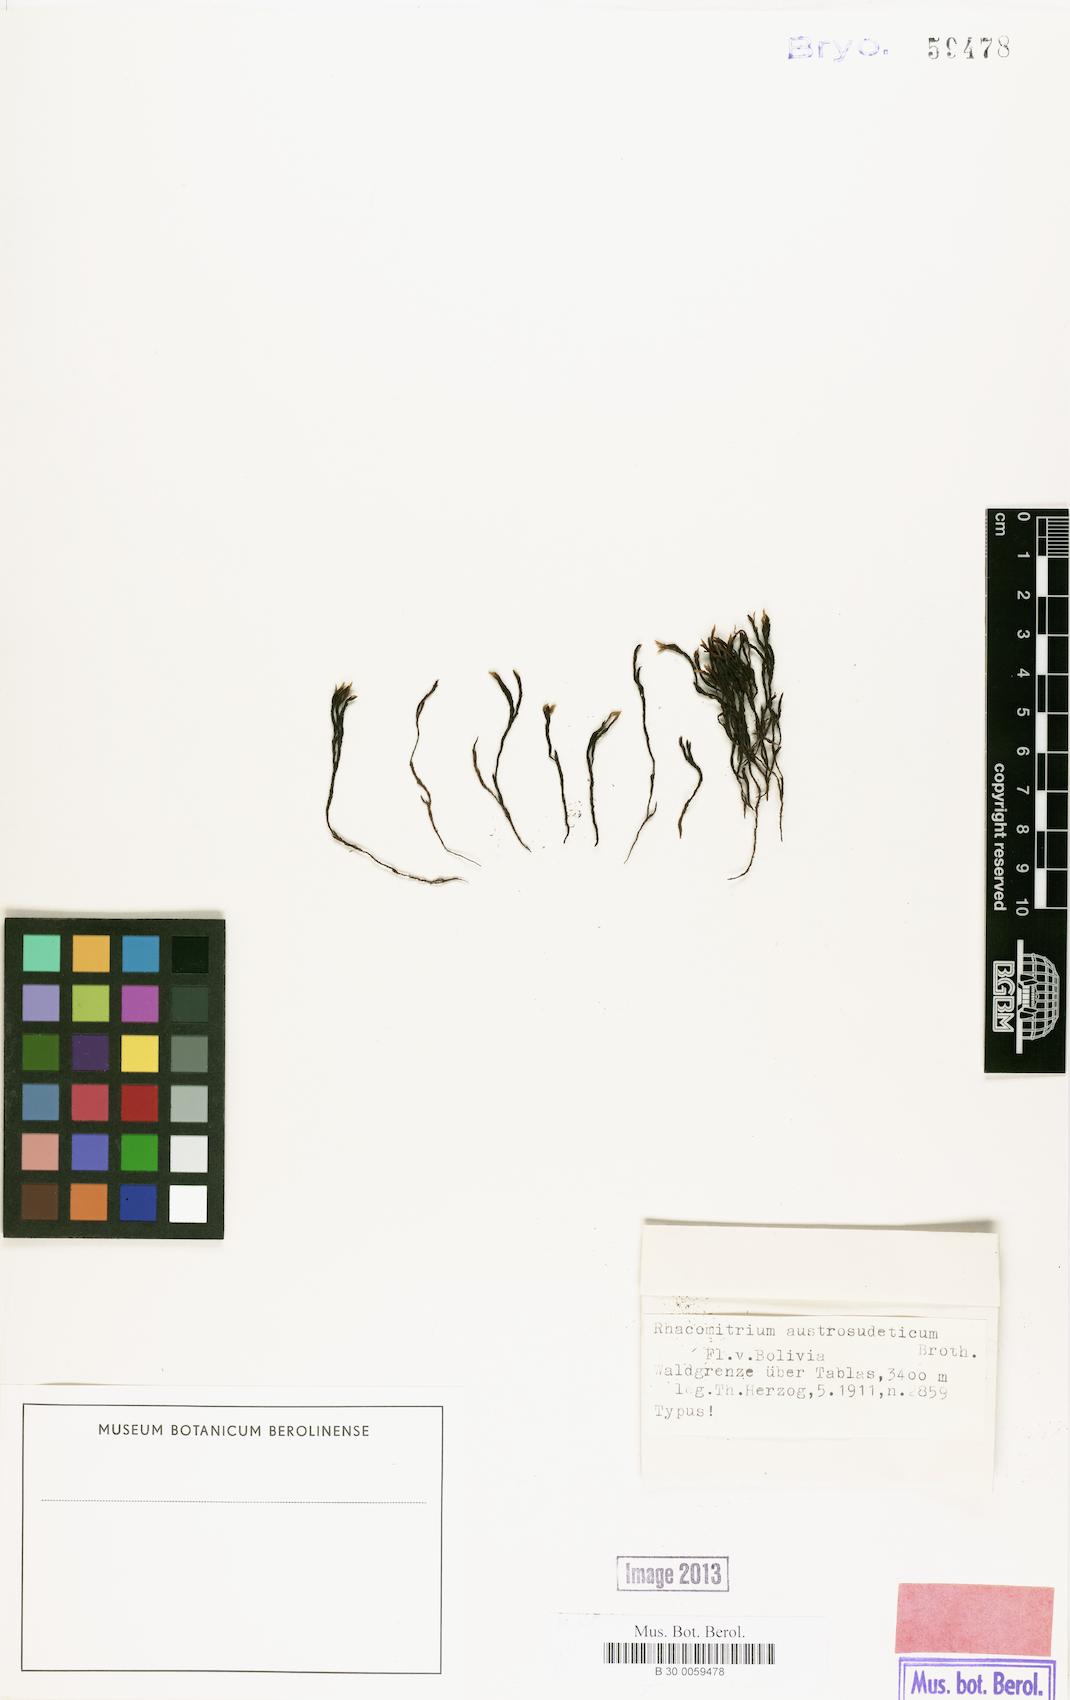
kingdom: Plantae
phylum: Bryophyta
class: Bryopsida
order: Grimmiales
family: Grimmiaceae
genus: Grimmia
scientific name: Grimmia austrofunalis
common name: Southern string grimmia
